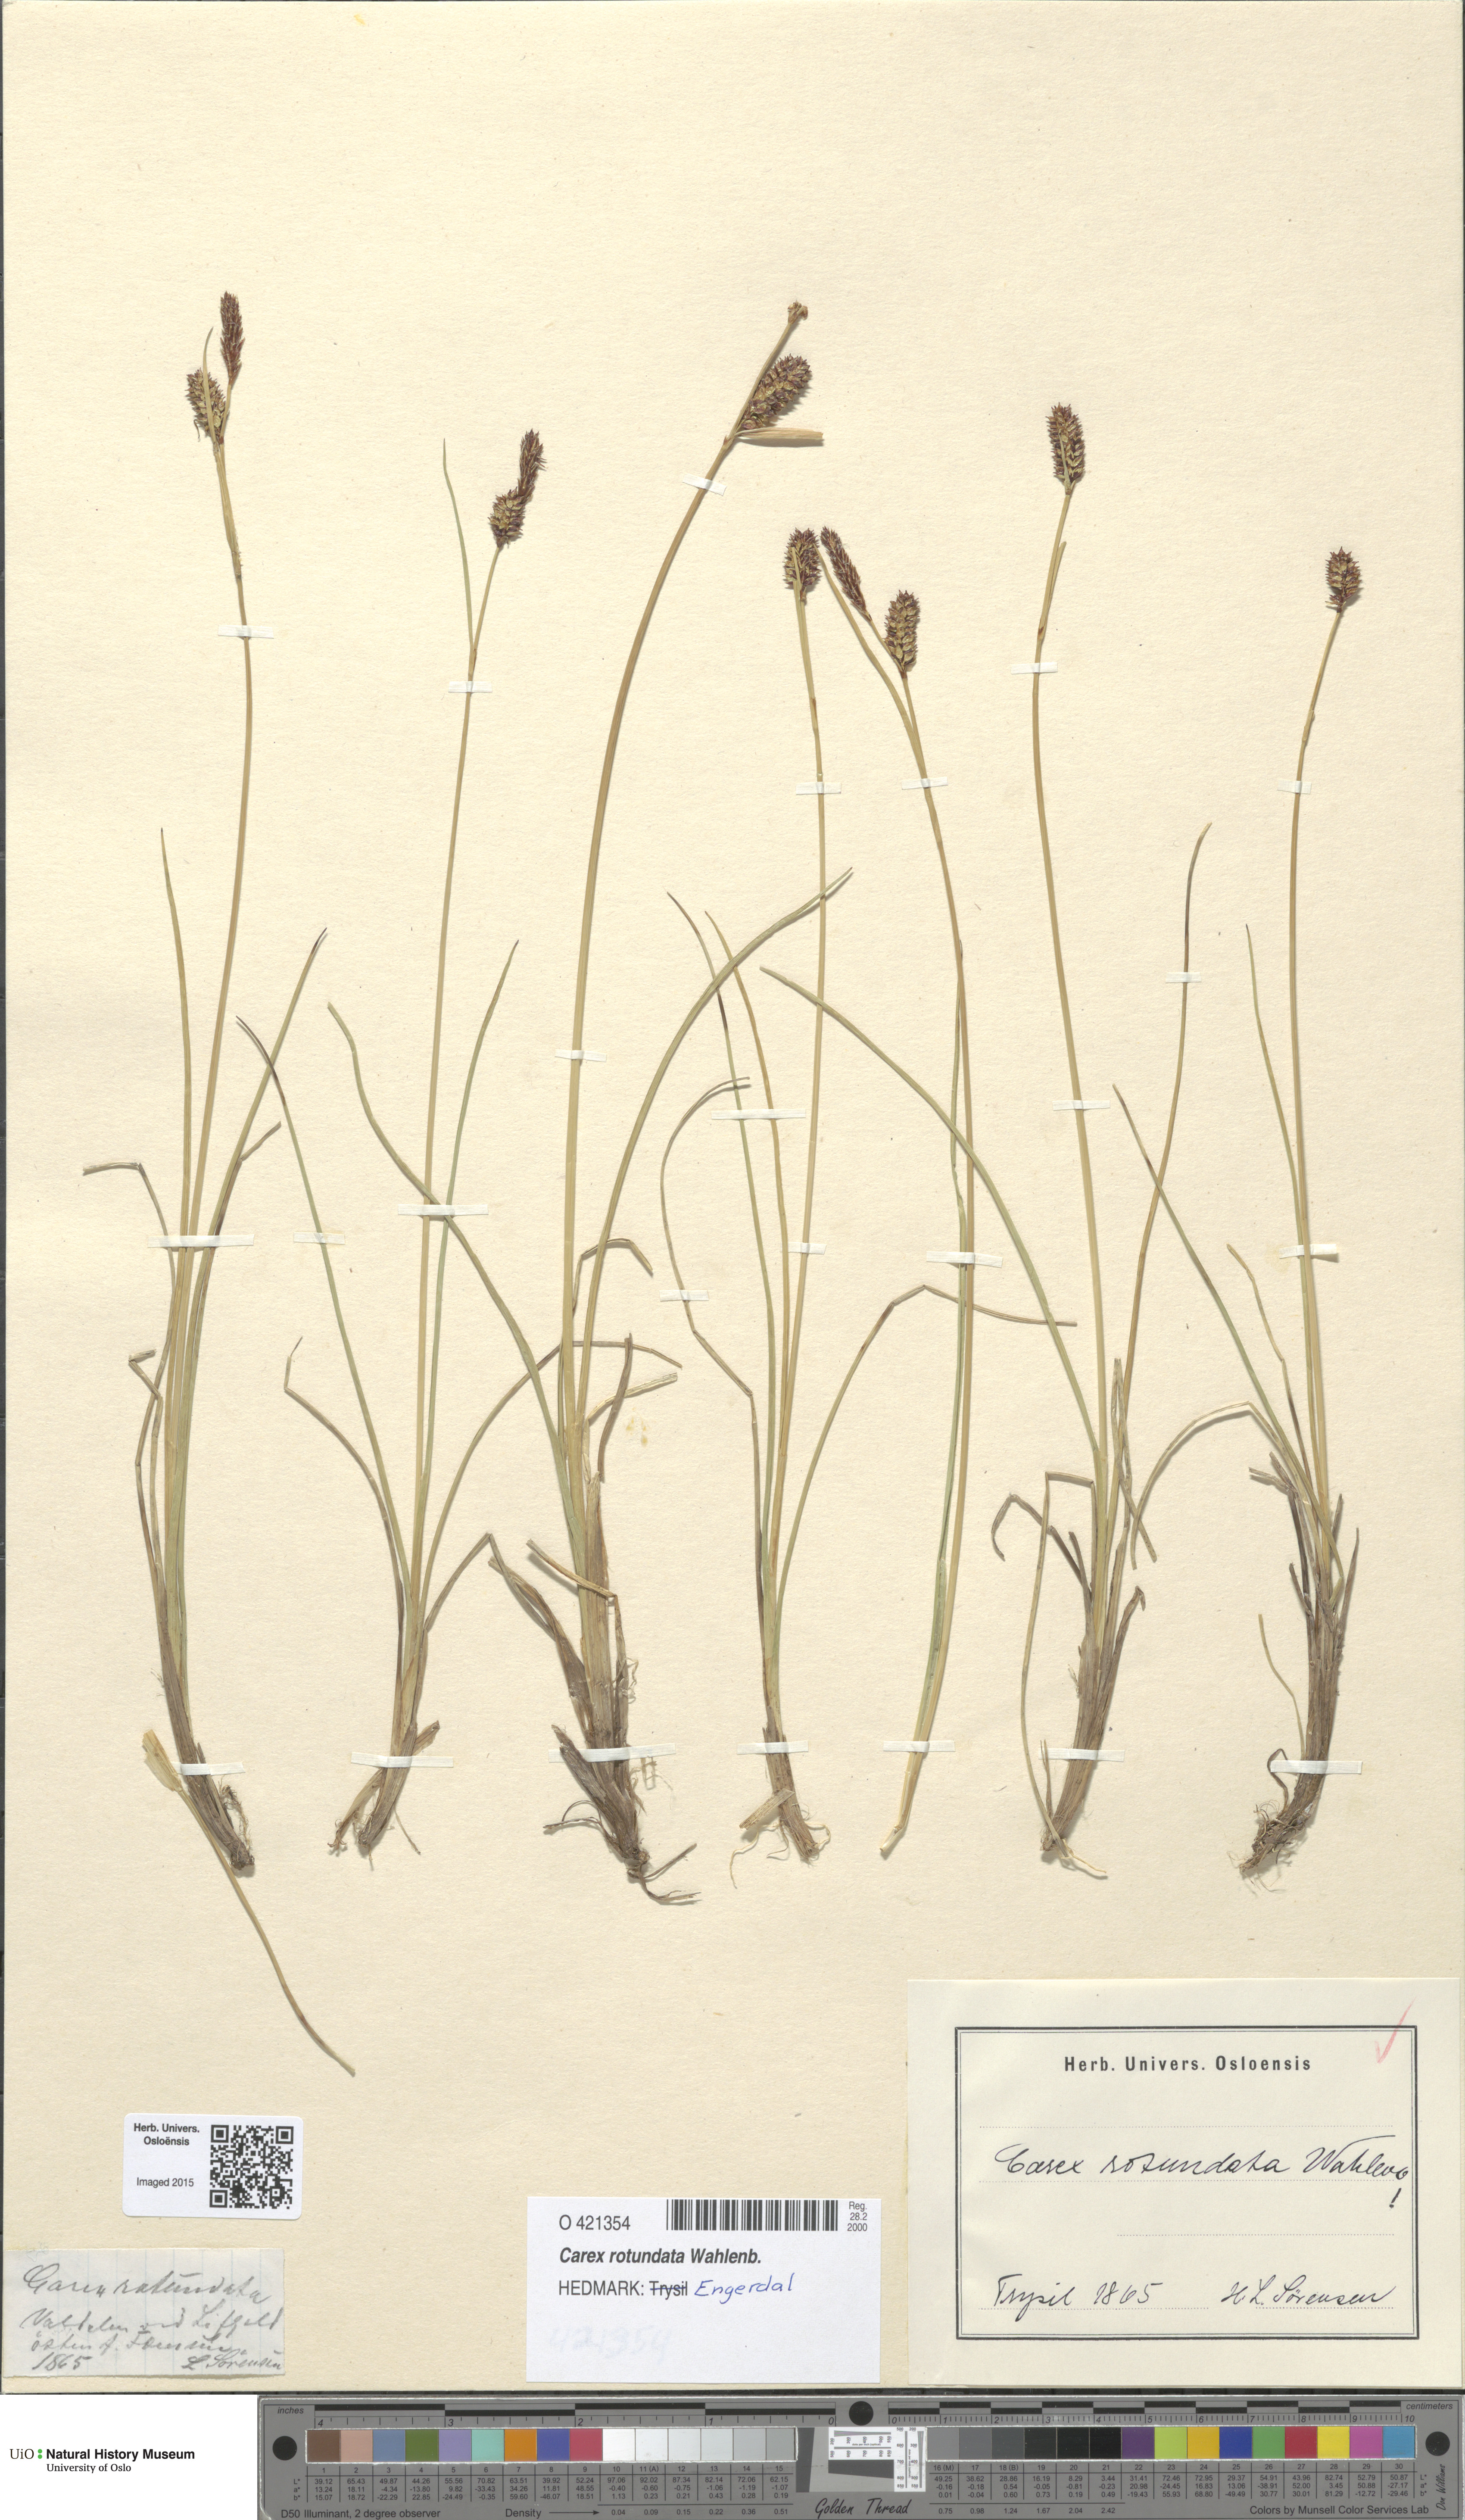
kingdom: Plantae
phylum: Tracheophyta
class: Liliopsida
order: Poales
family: Cyperaceae
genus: Carex
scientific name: Carex rotundata
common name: Round-fruited sedge
